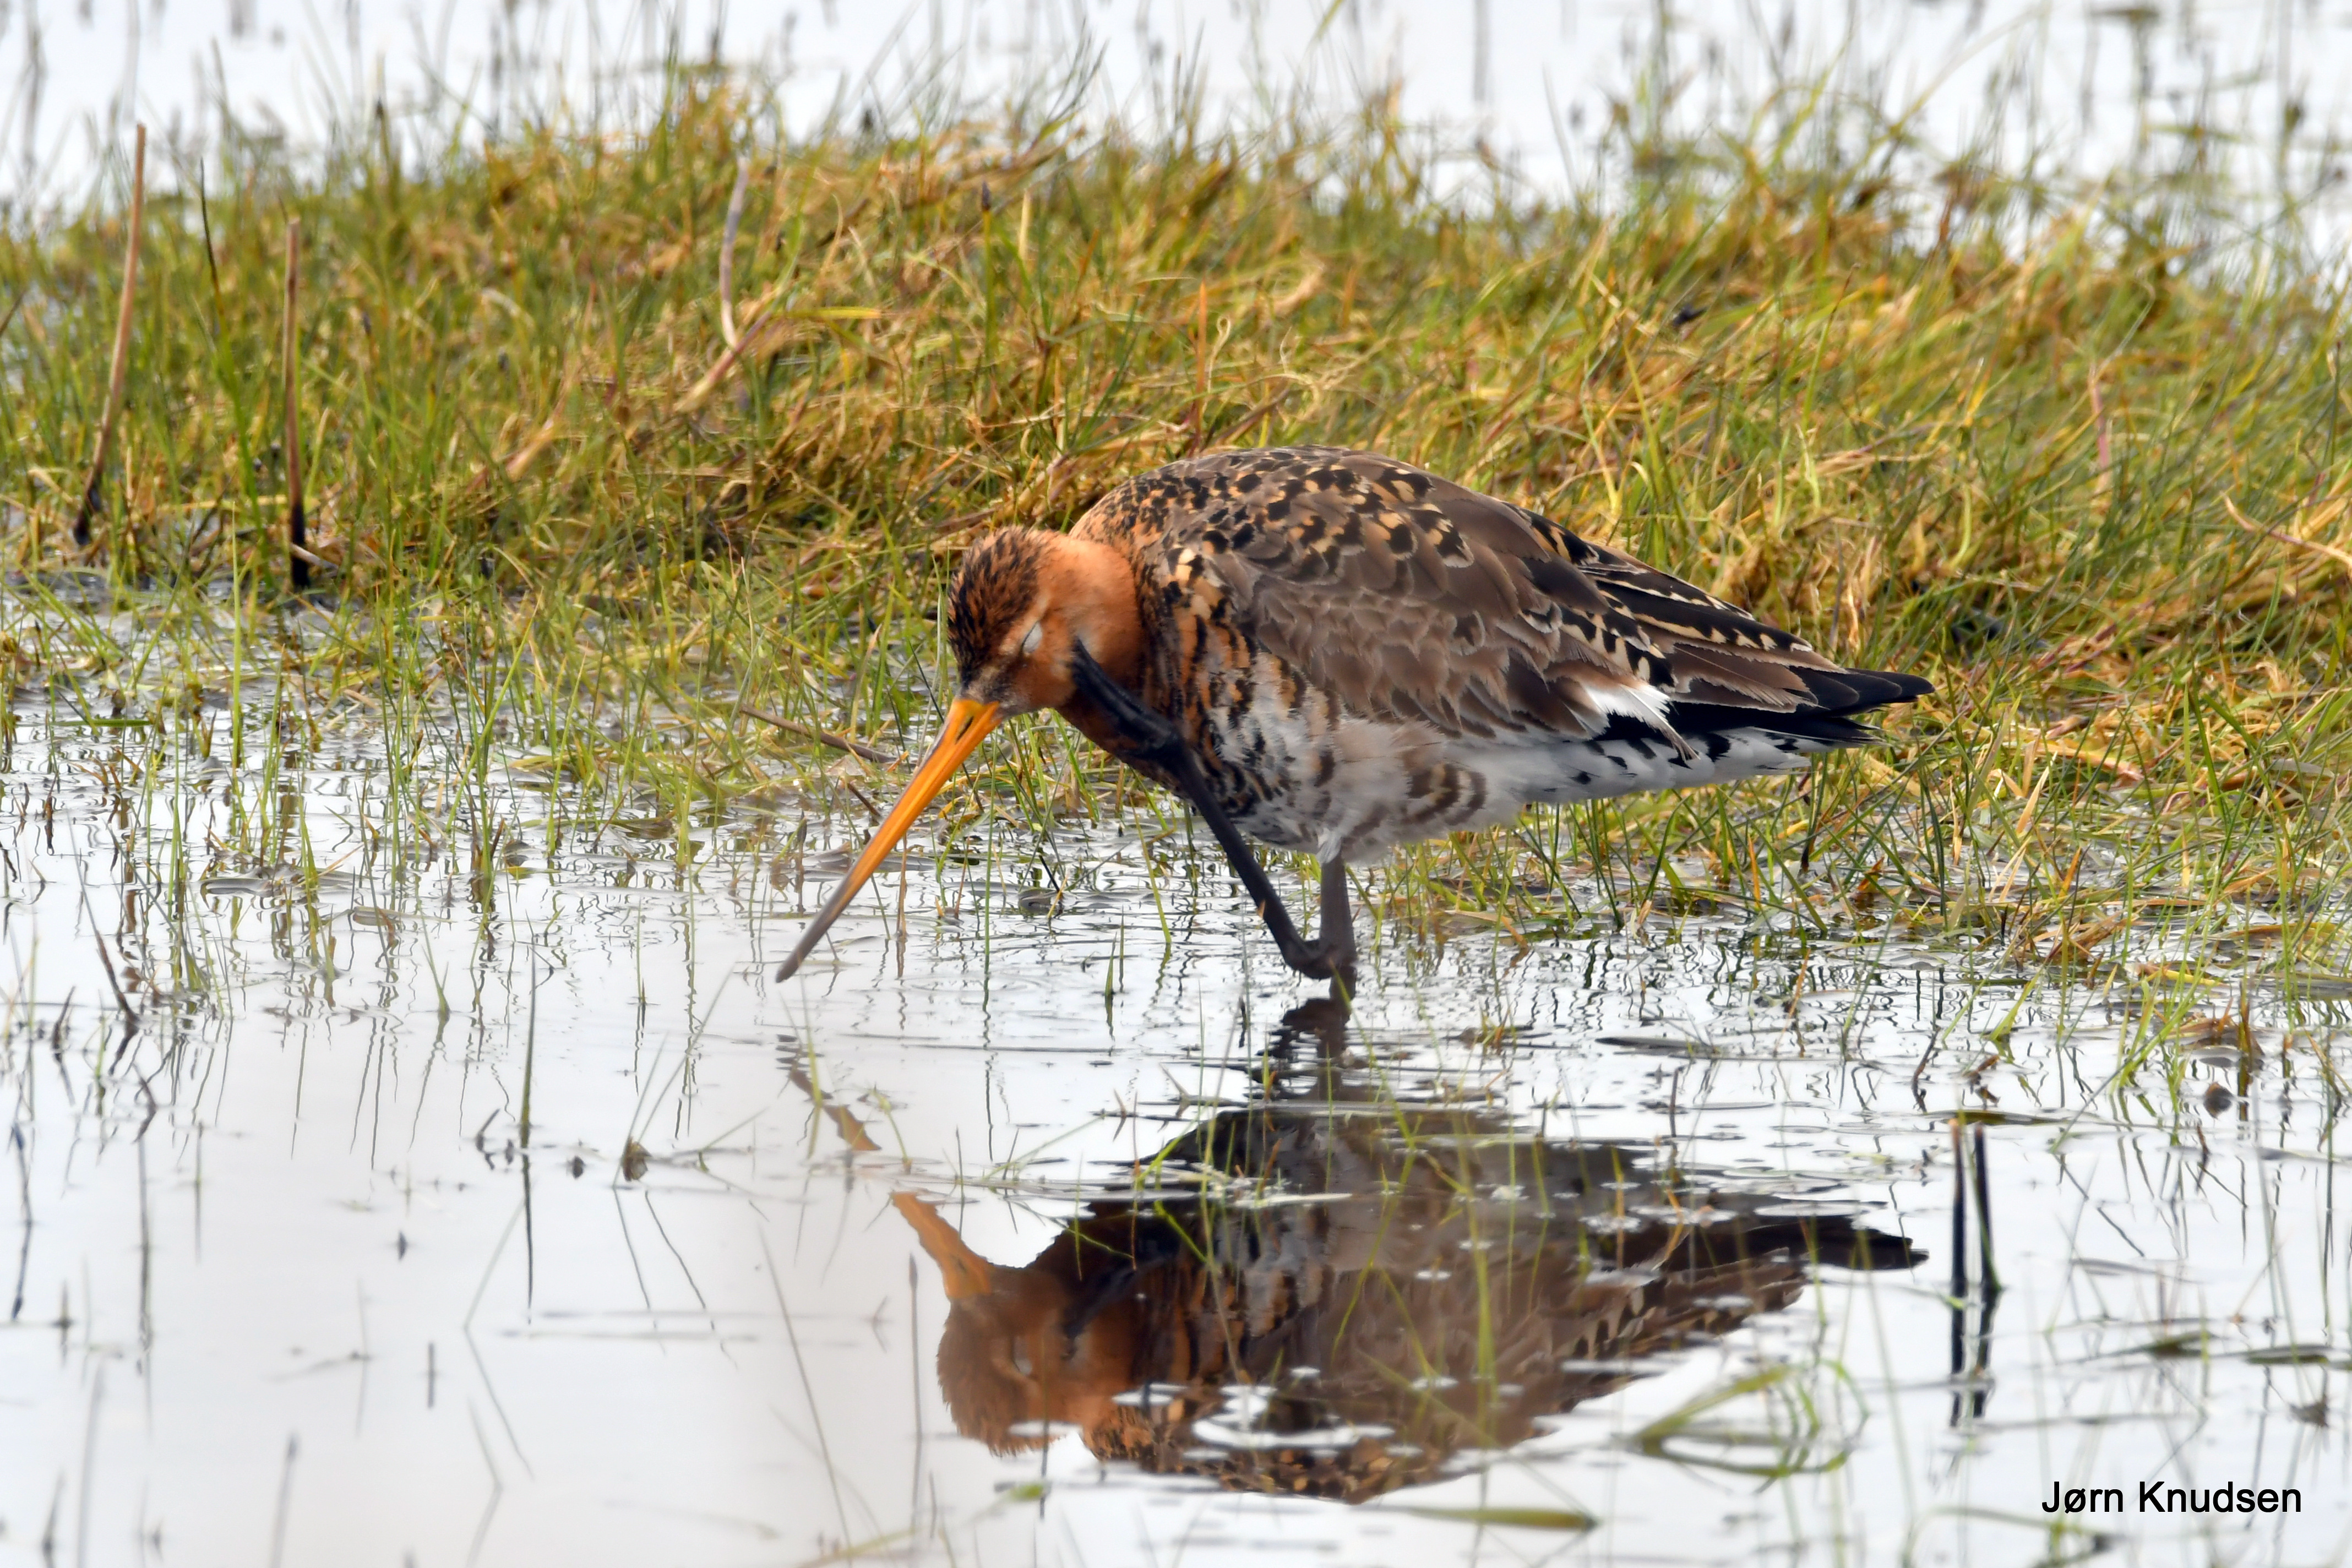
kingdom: Animalia
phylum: Chordata
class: Aves
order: Charadriiformes
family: Scolopacidae
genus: Limosa
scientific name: Limosa limosa
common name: Stor kobbersneppe
